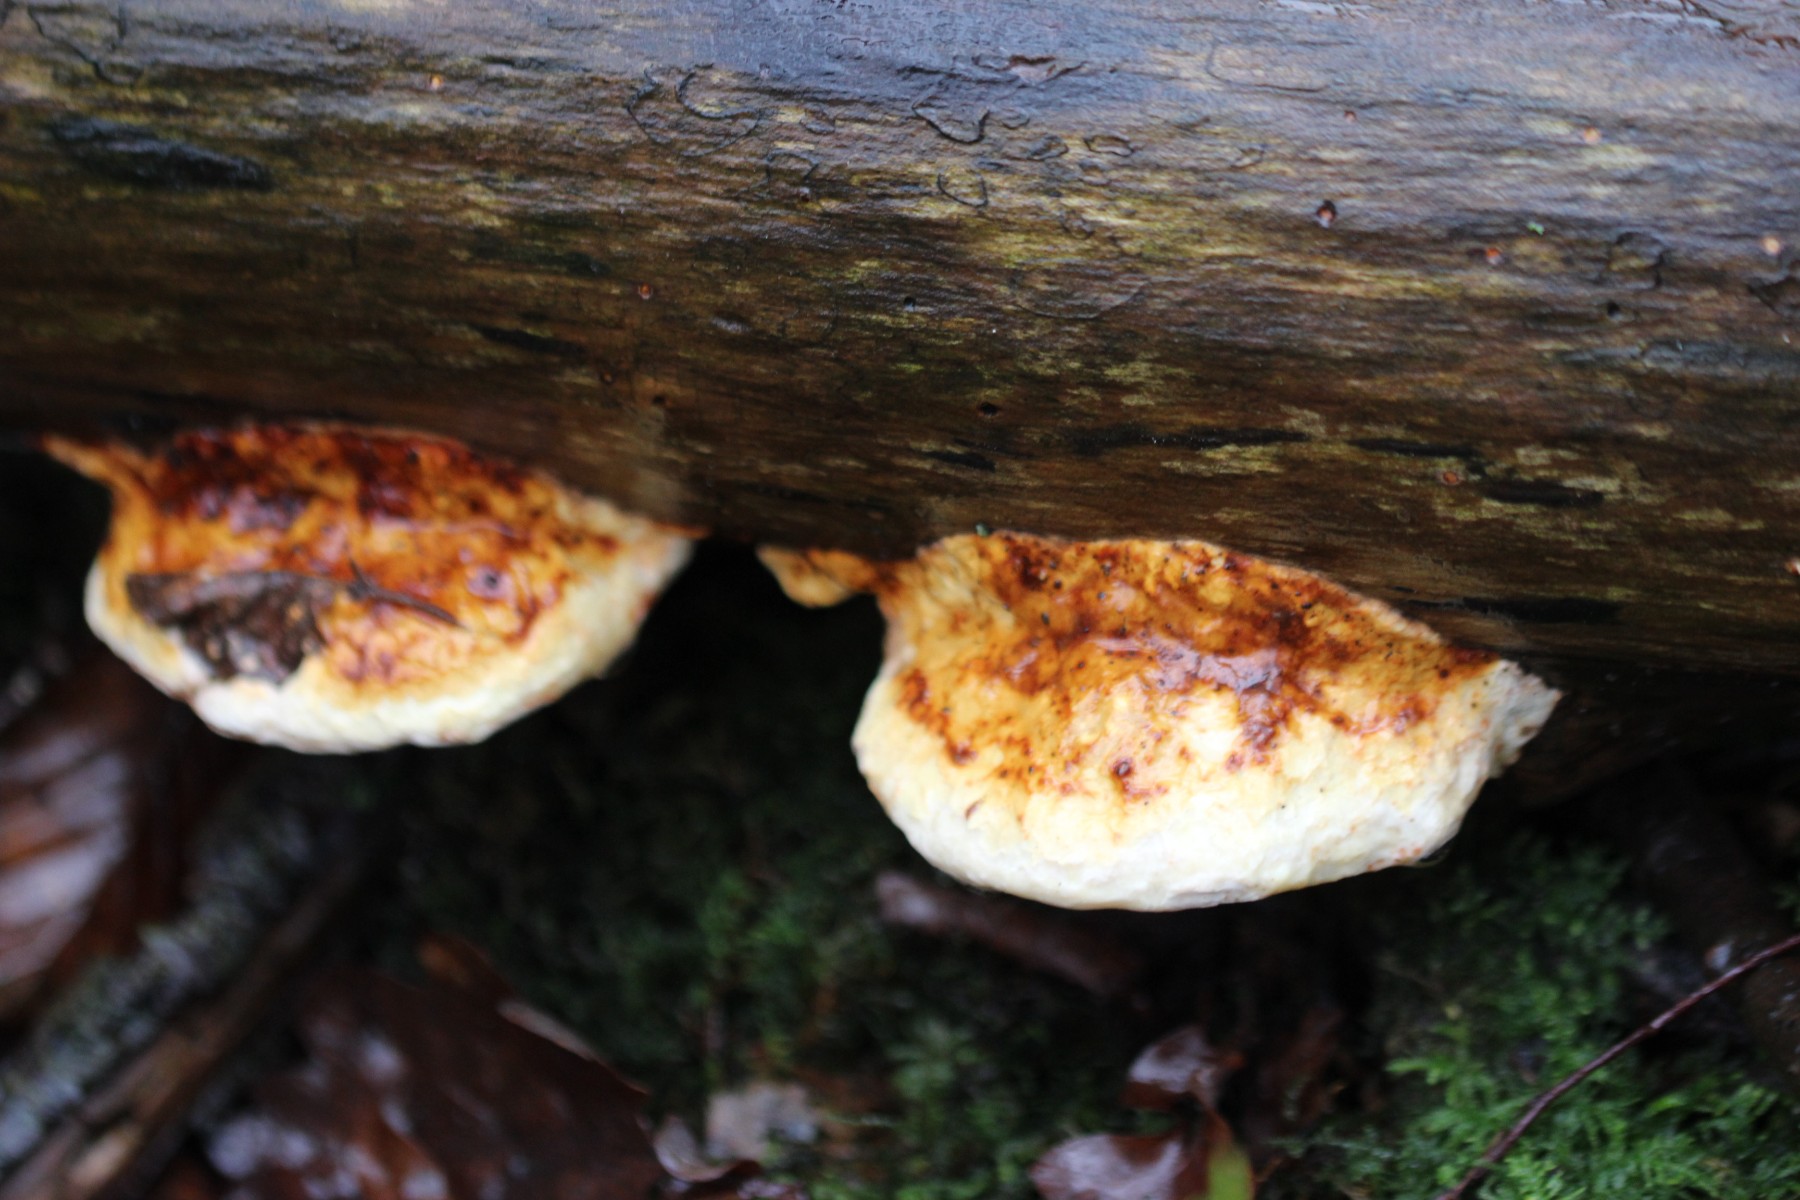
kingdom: Fungi
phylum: Basidiomycota
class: Agaricomycetes
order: Polyporales
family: Fomitopsidaceae
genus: Fomitopsis
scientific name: Fomitopsis pinicola
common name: randbæltet hovporesvamp
